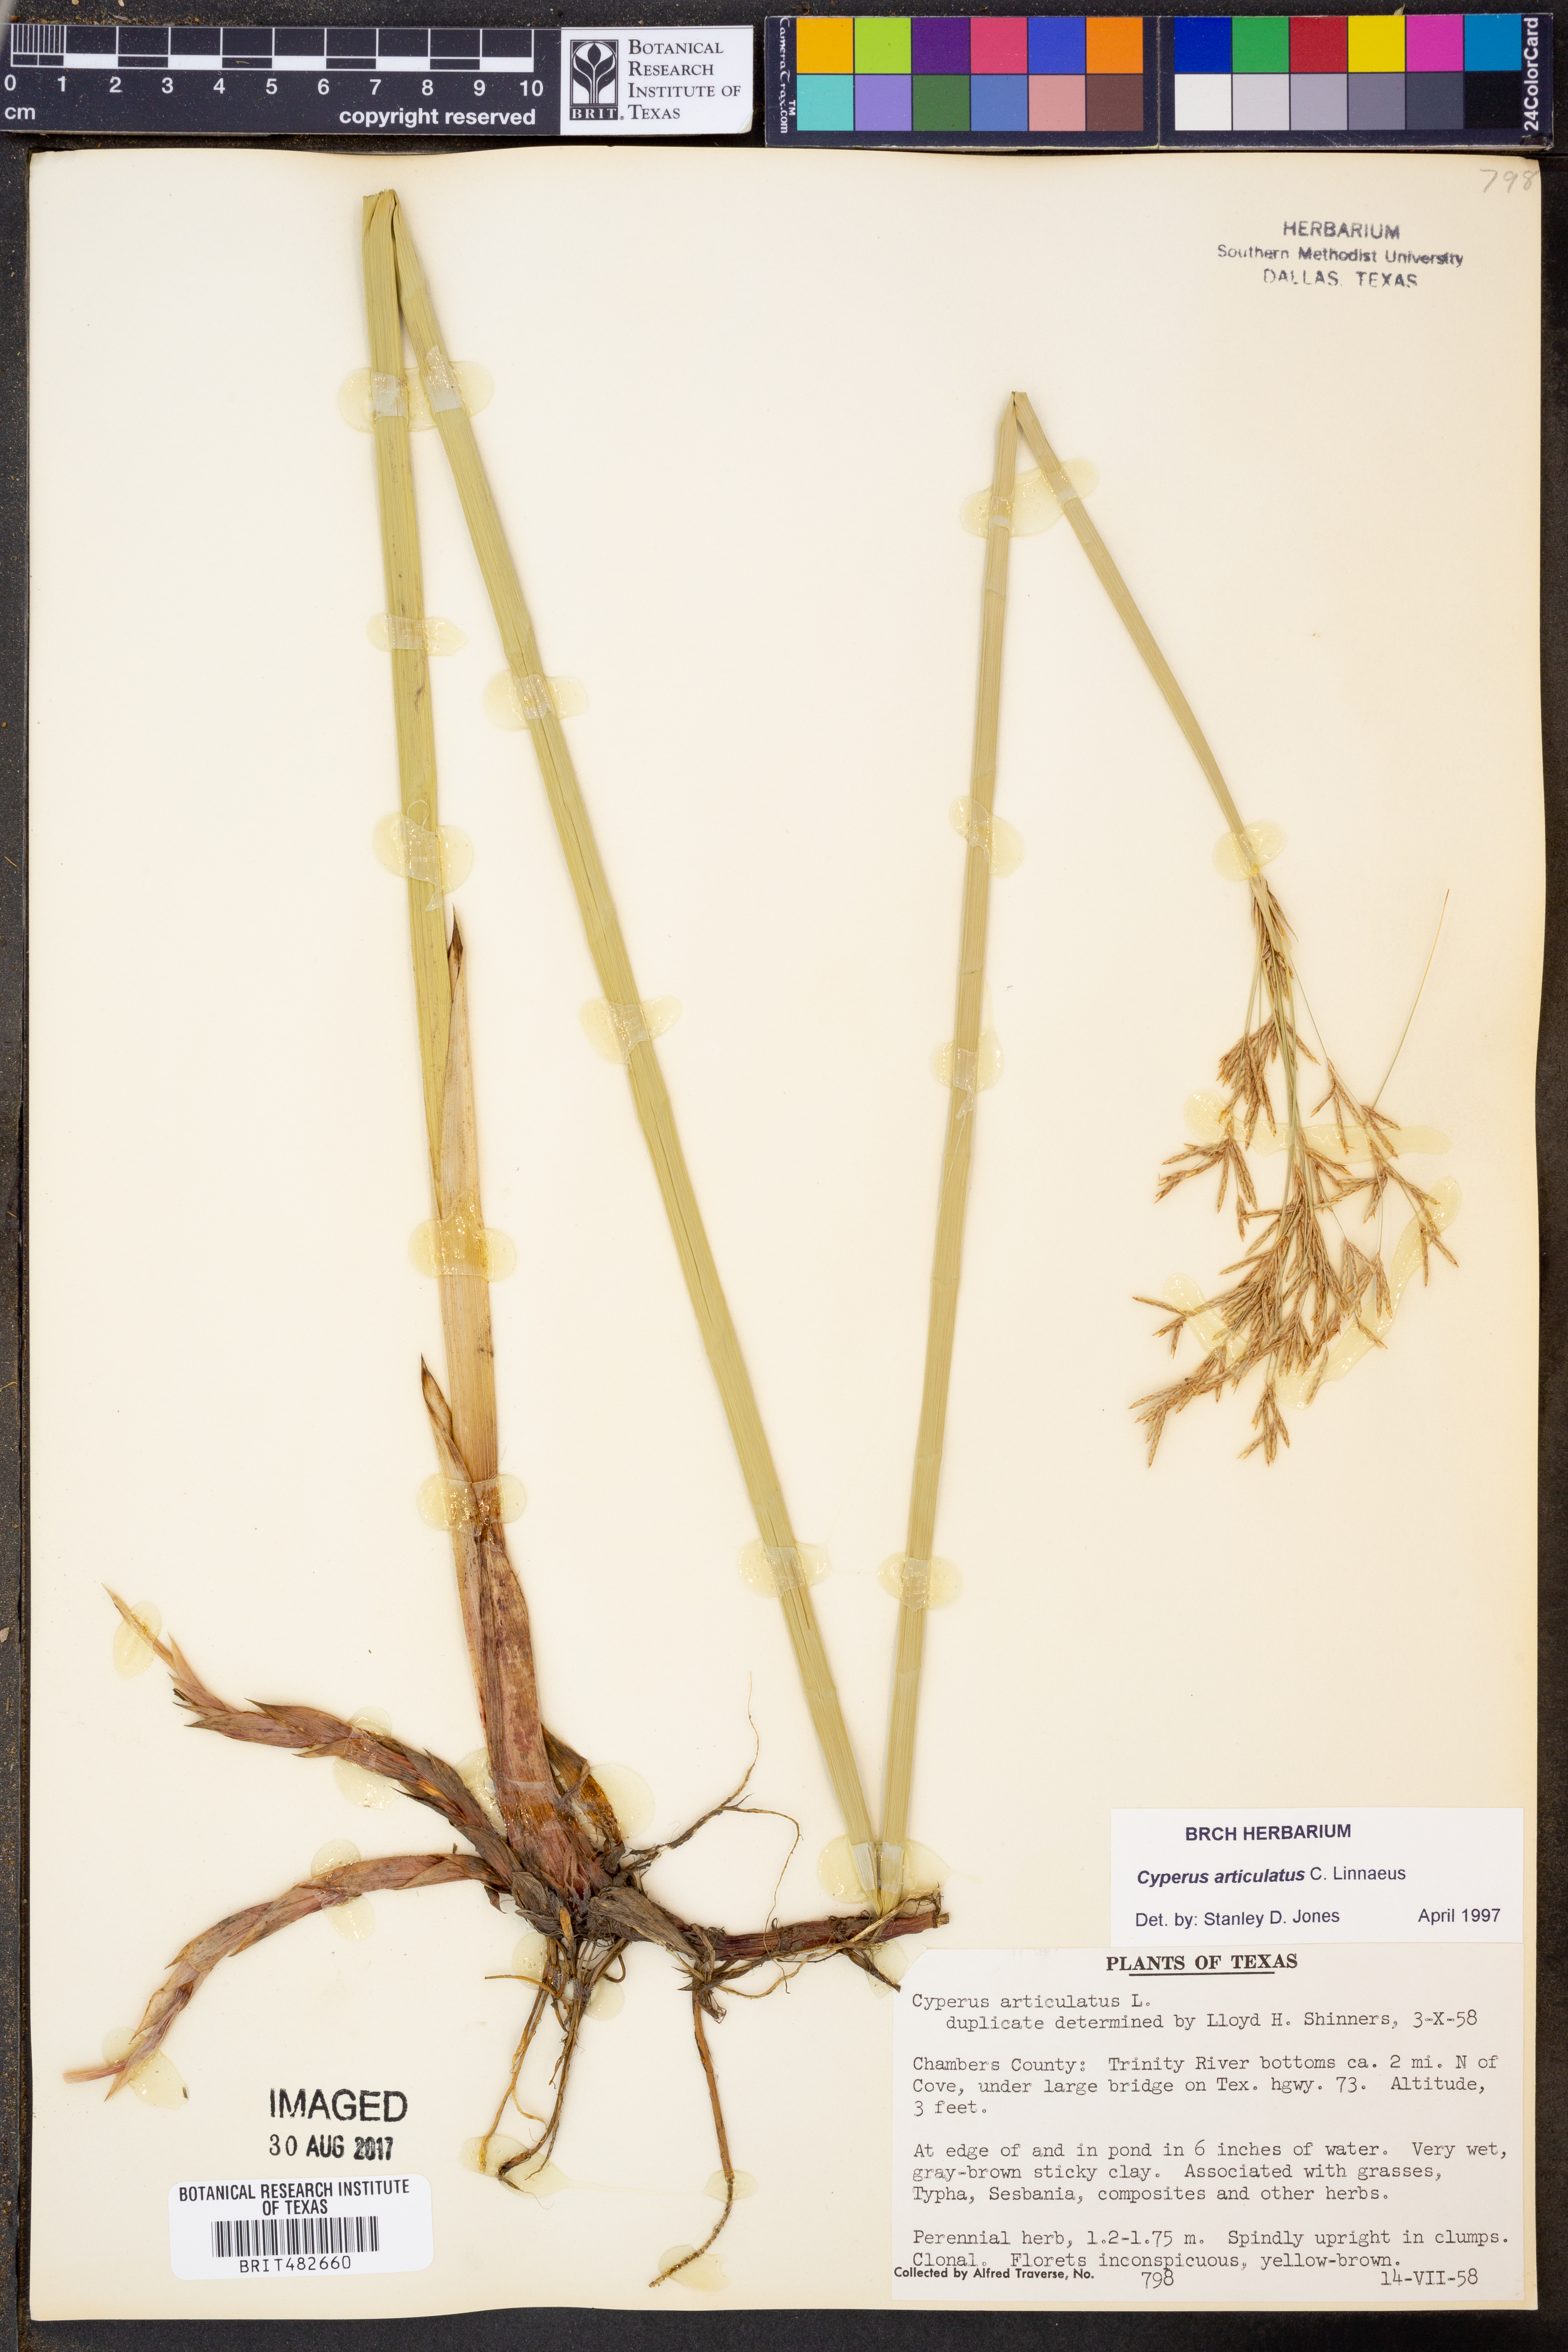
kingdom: Plantae
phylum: Tracheophyta
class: Liliopsida
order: Poales
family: Cyperaceae
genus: Cyperus
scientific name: Cyperus articulatus
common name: Jointed flatsedge
